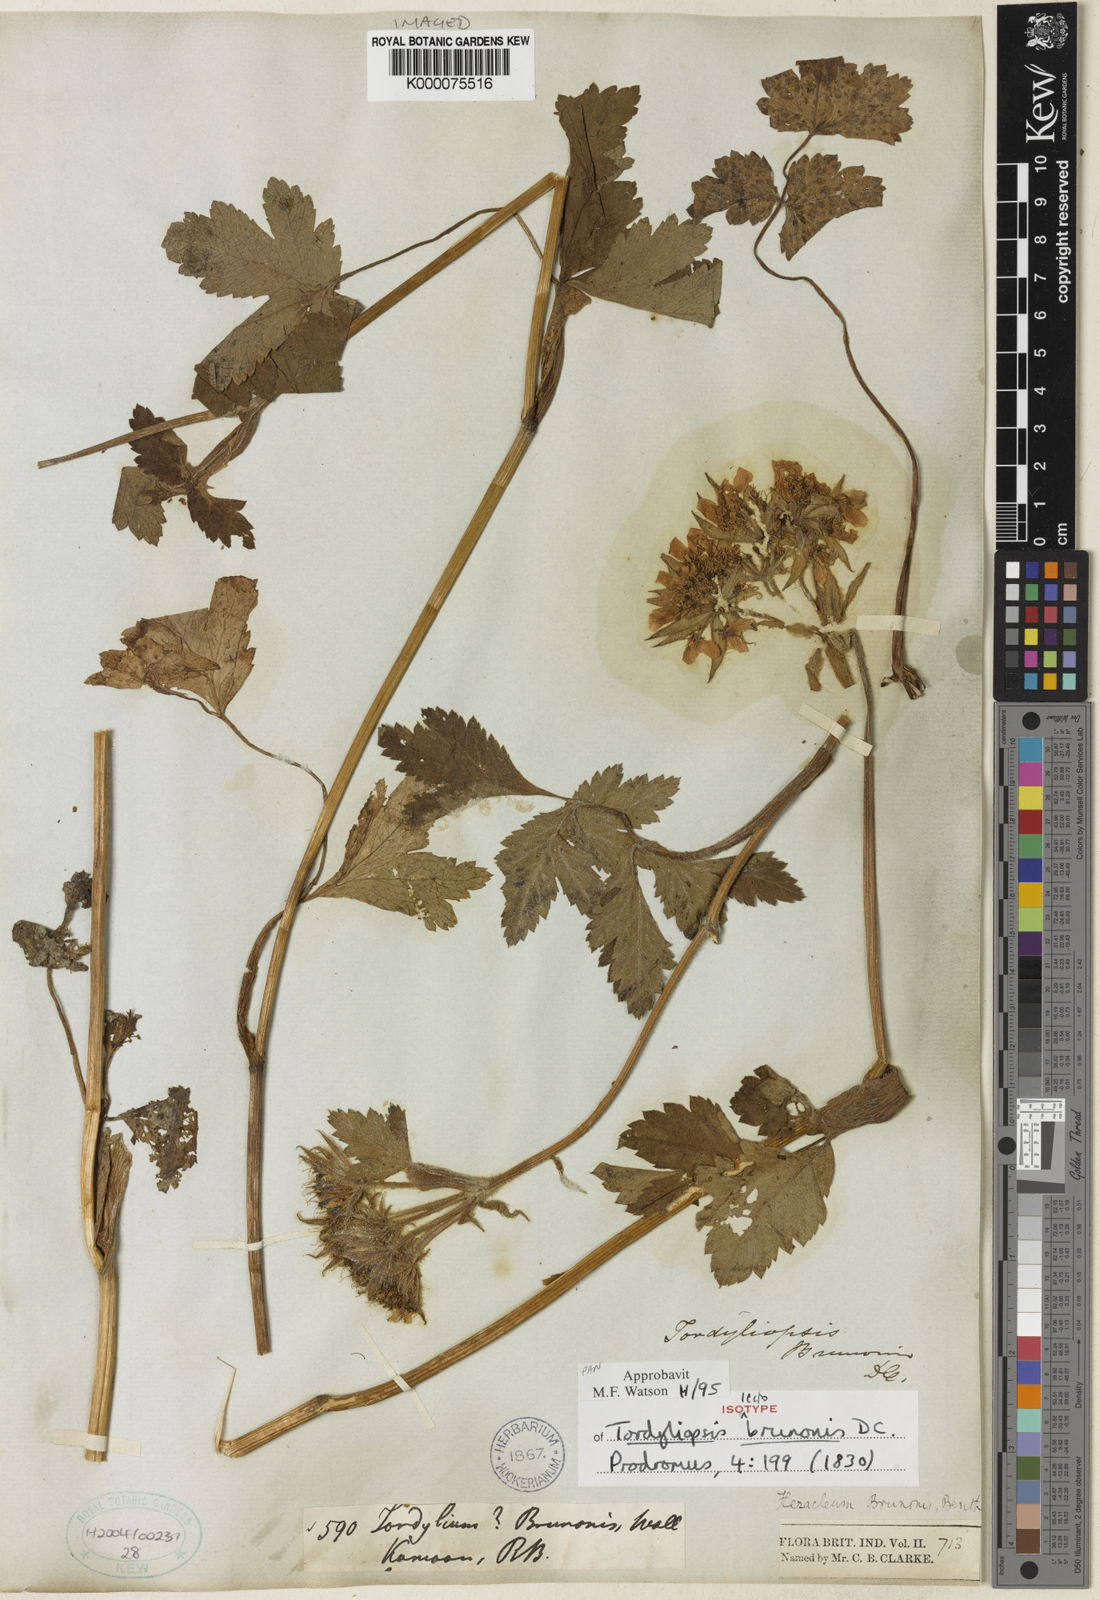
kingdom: Plantae
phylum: Tracheophyta
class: Magnoliopsida
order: Apiales
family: Apiaceae
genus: Tordyliopsis
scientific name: Tordyliopsis brunonis
